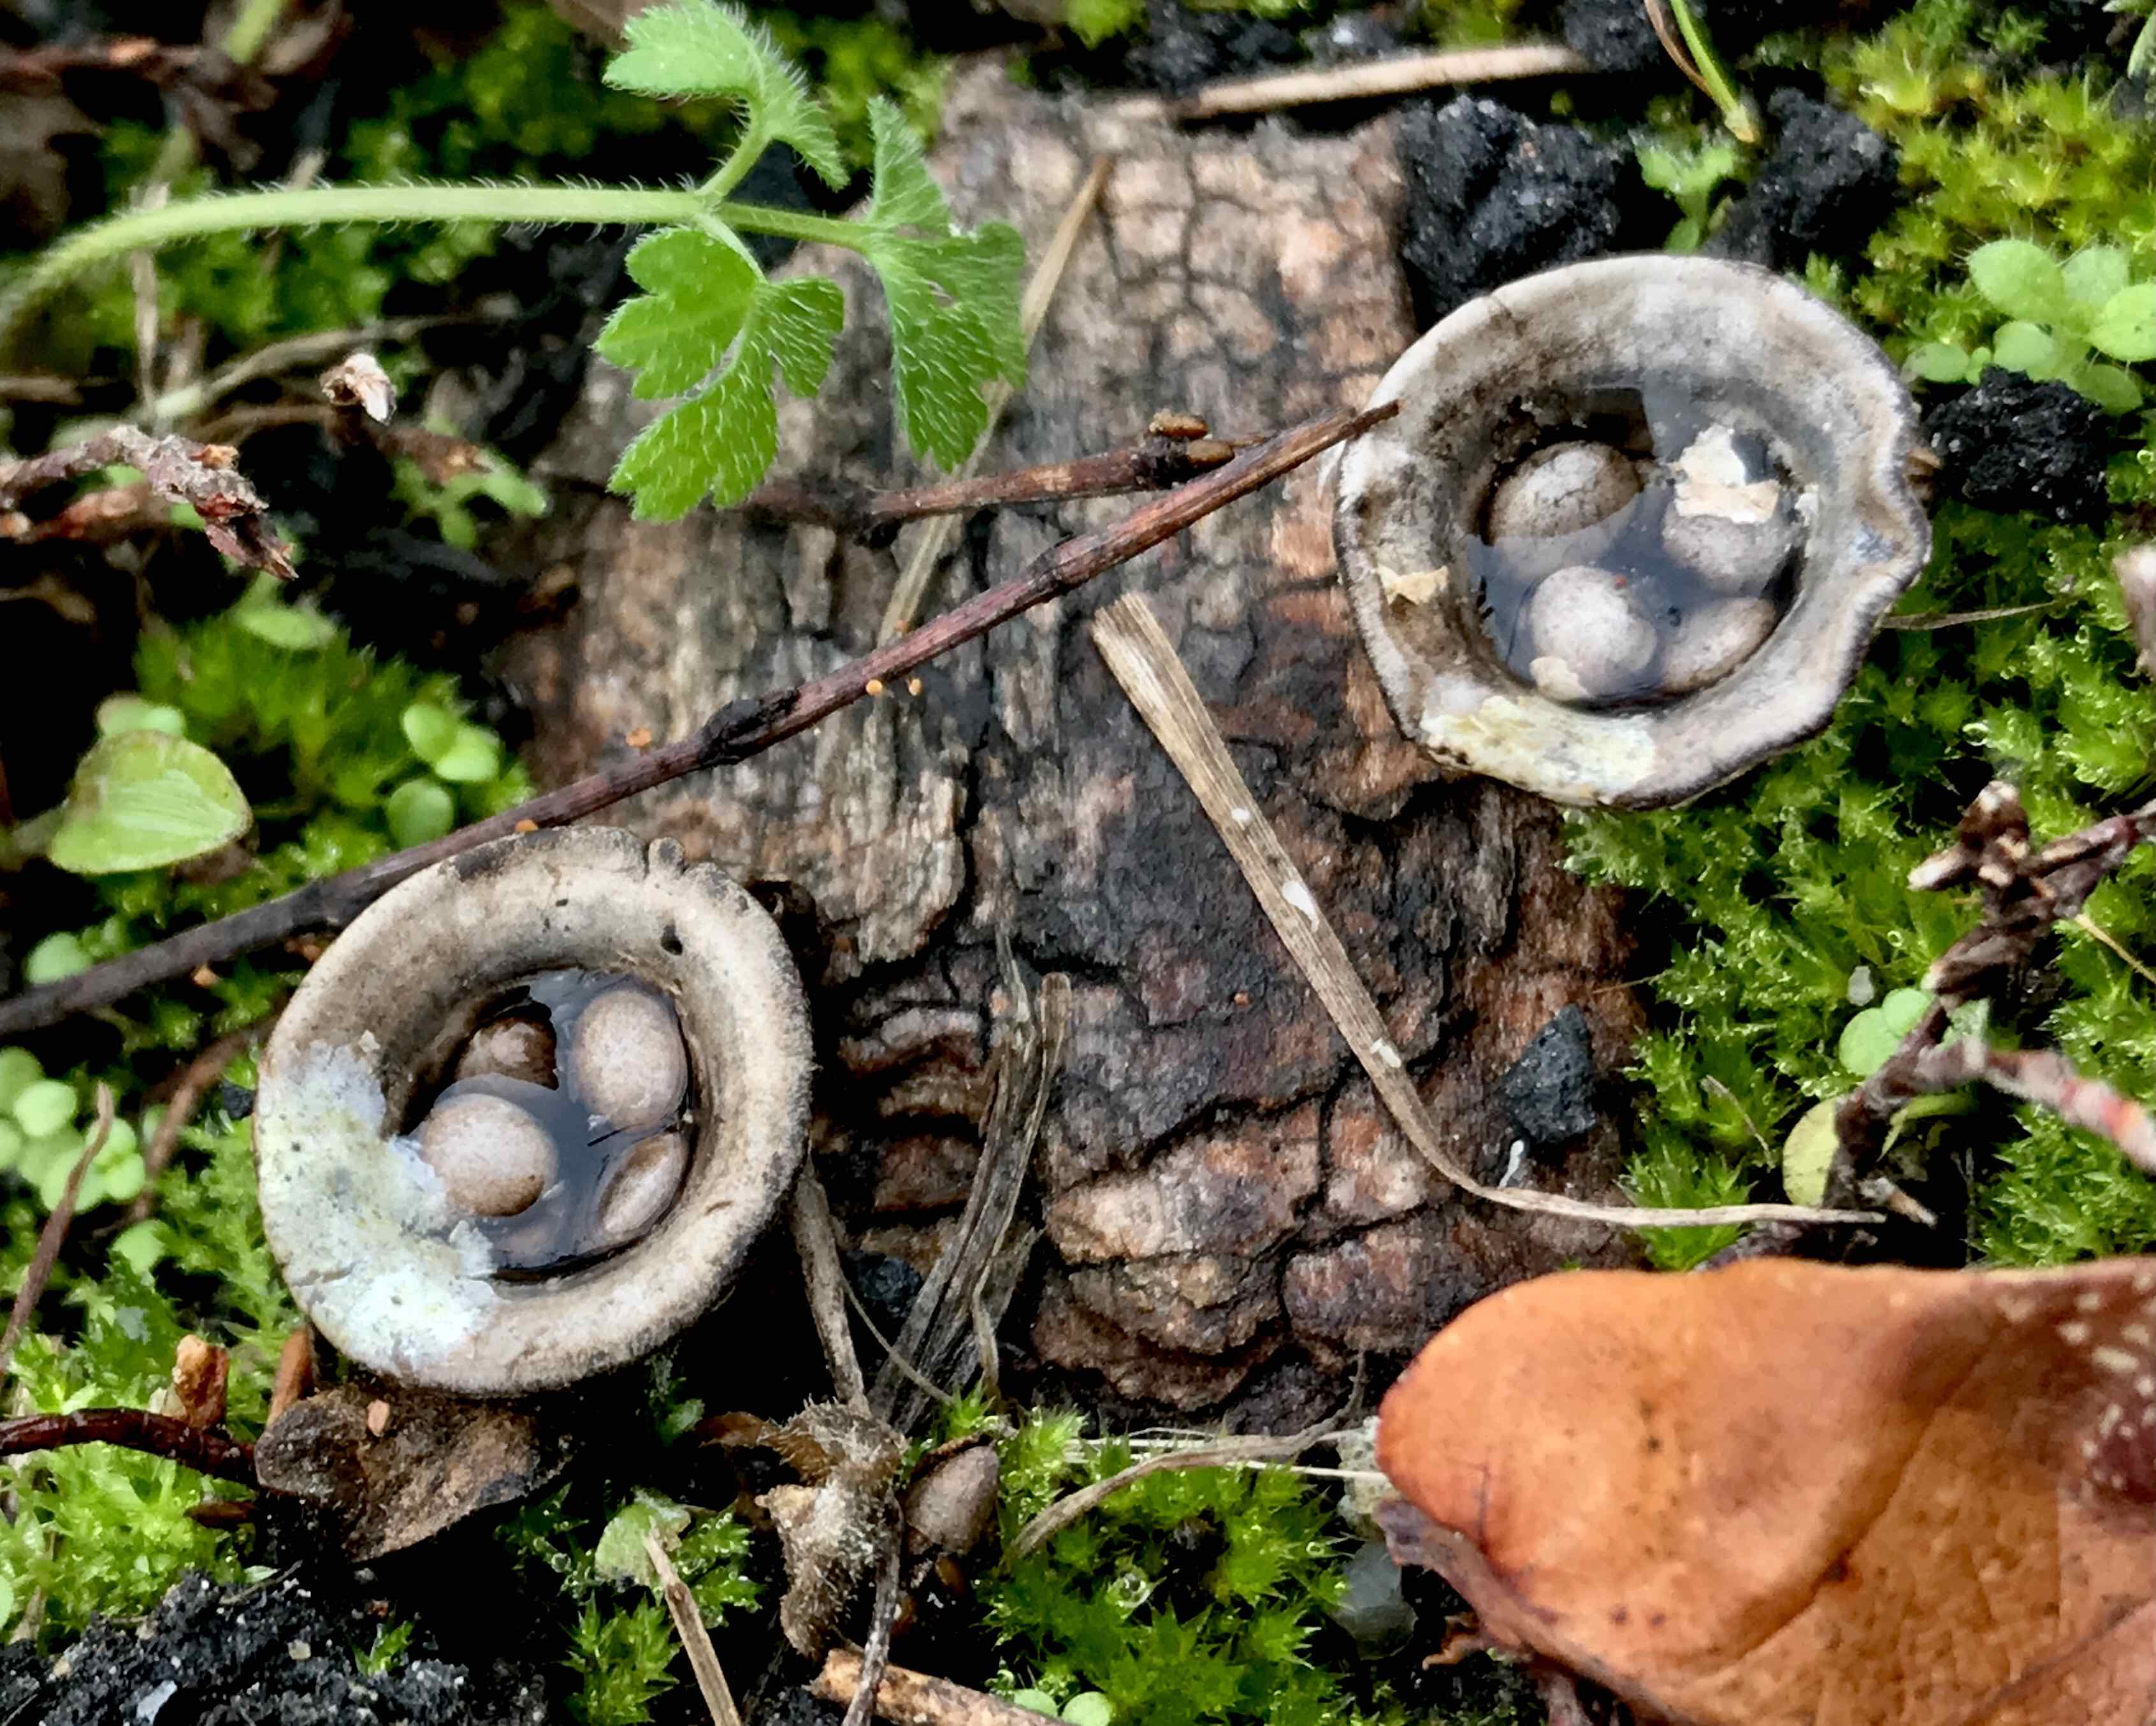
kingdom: Fungi
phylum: Basidiomycota
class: Agaricomycetes
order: Agaricales
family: Agaricaceae
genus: Cyathus
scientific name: Cyathus olla
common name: klokke-redesvamp
